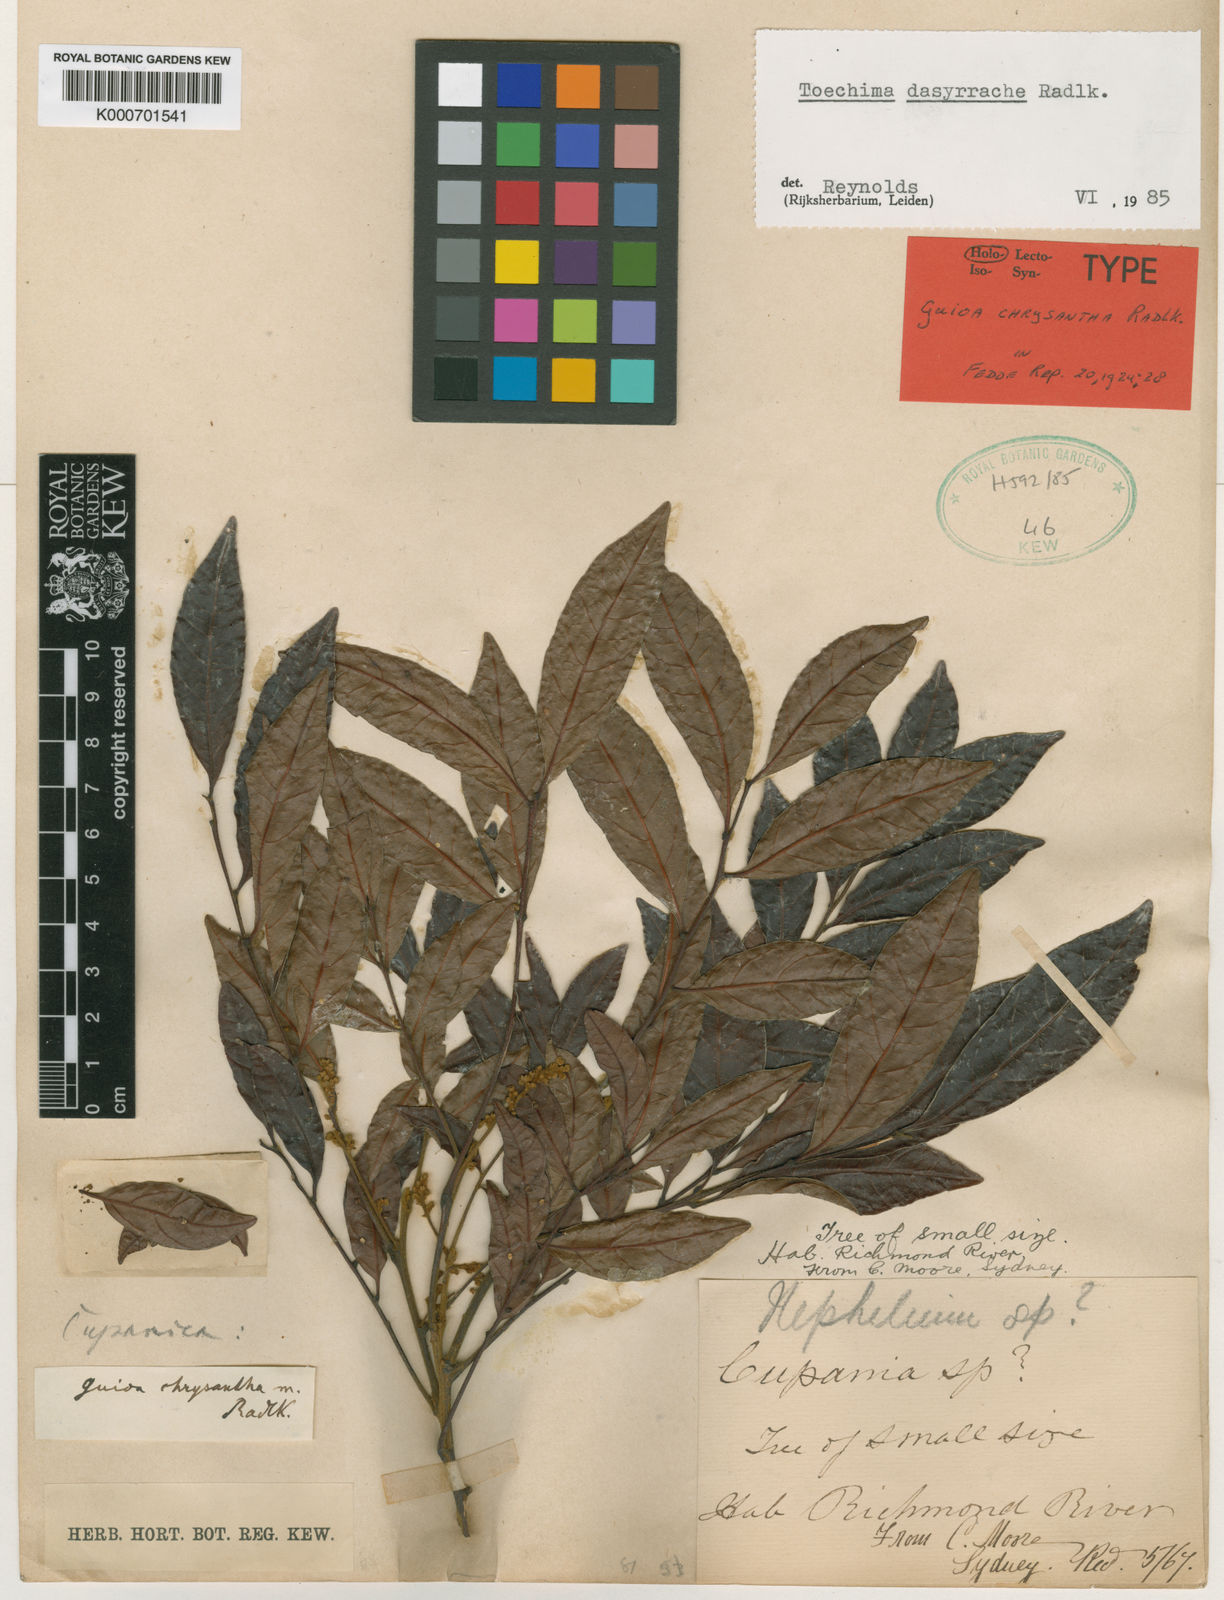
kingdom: Plantae
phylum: Tracheophyta
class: Magnoliopsida
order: Sapindales
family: Sapindaceae
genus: Toechima
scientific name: Toechima dasyrrhache
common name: Blunt-leaved steelwood
